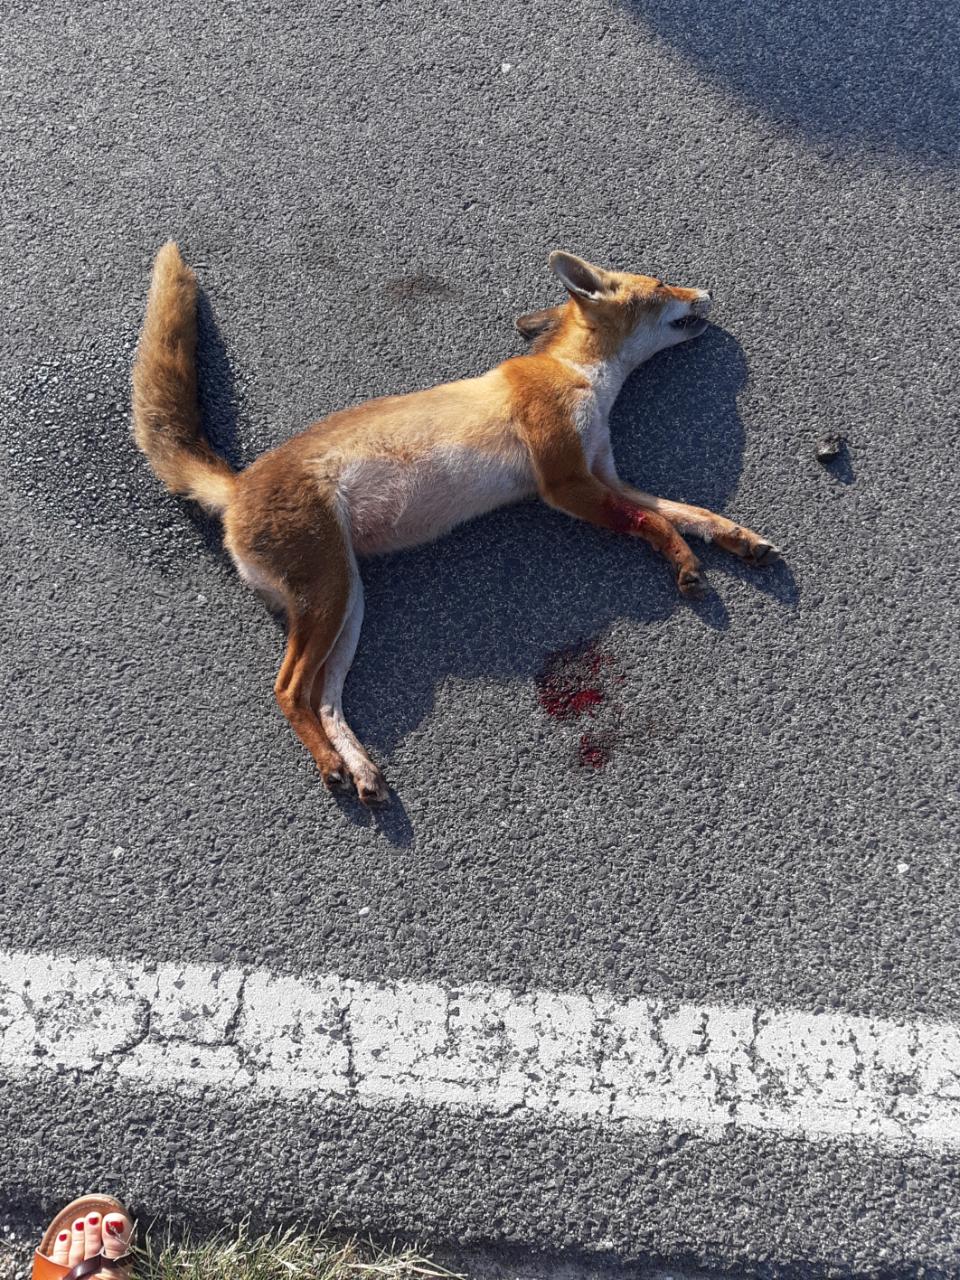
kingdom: Animalia
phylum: Chordata
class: Mammalia
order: Carnivora
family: Canidae
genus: Vulpes
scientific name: Vulpes vulpes
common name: Red fox
